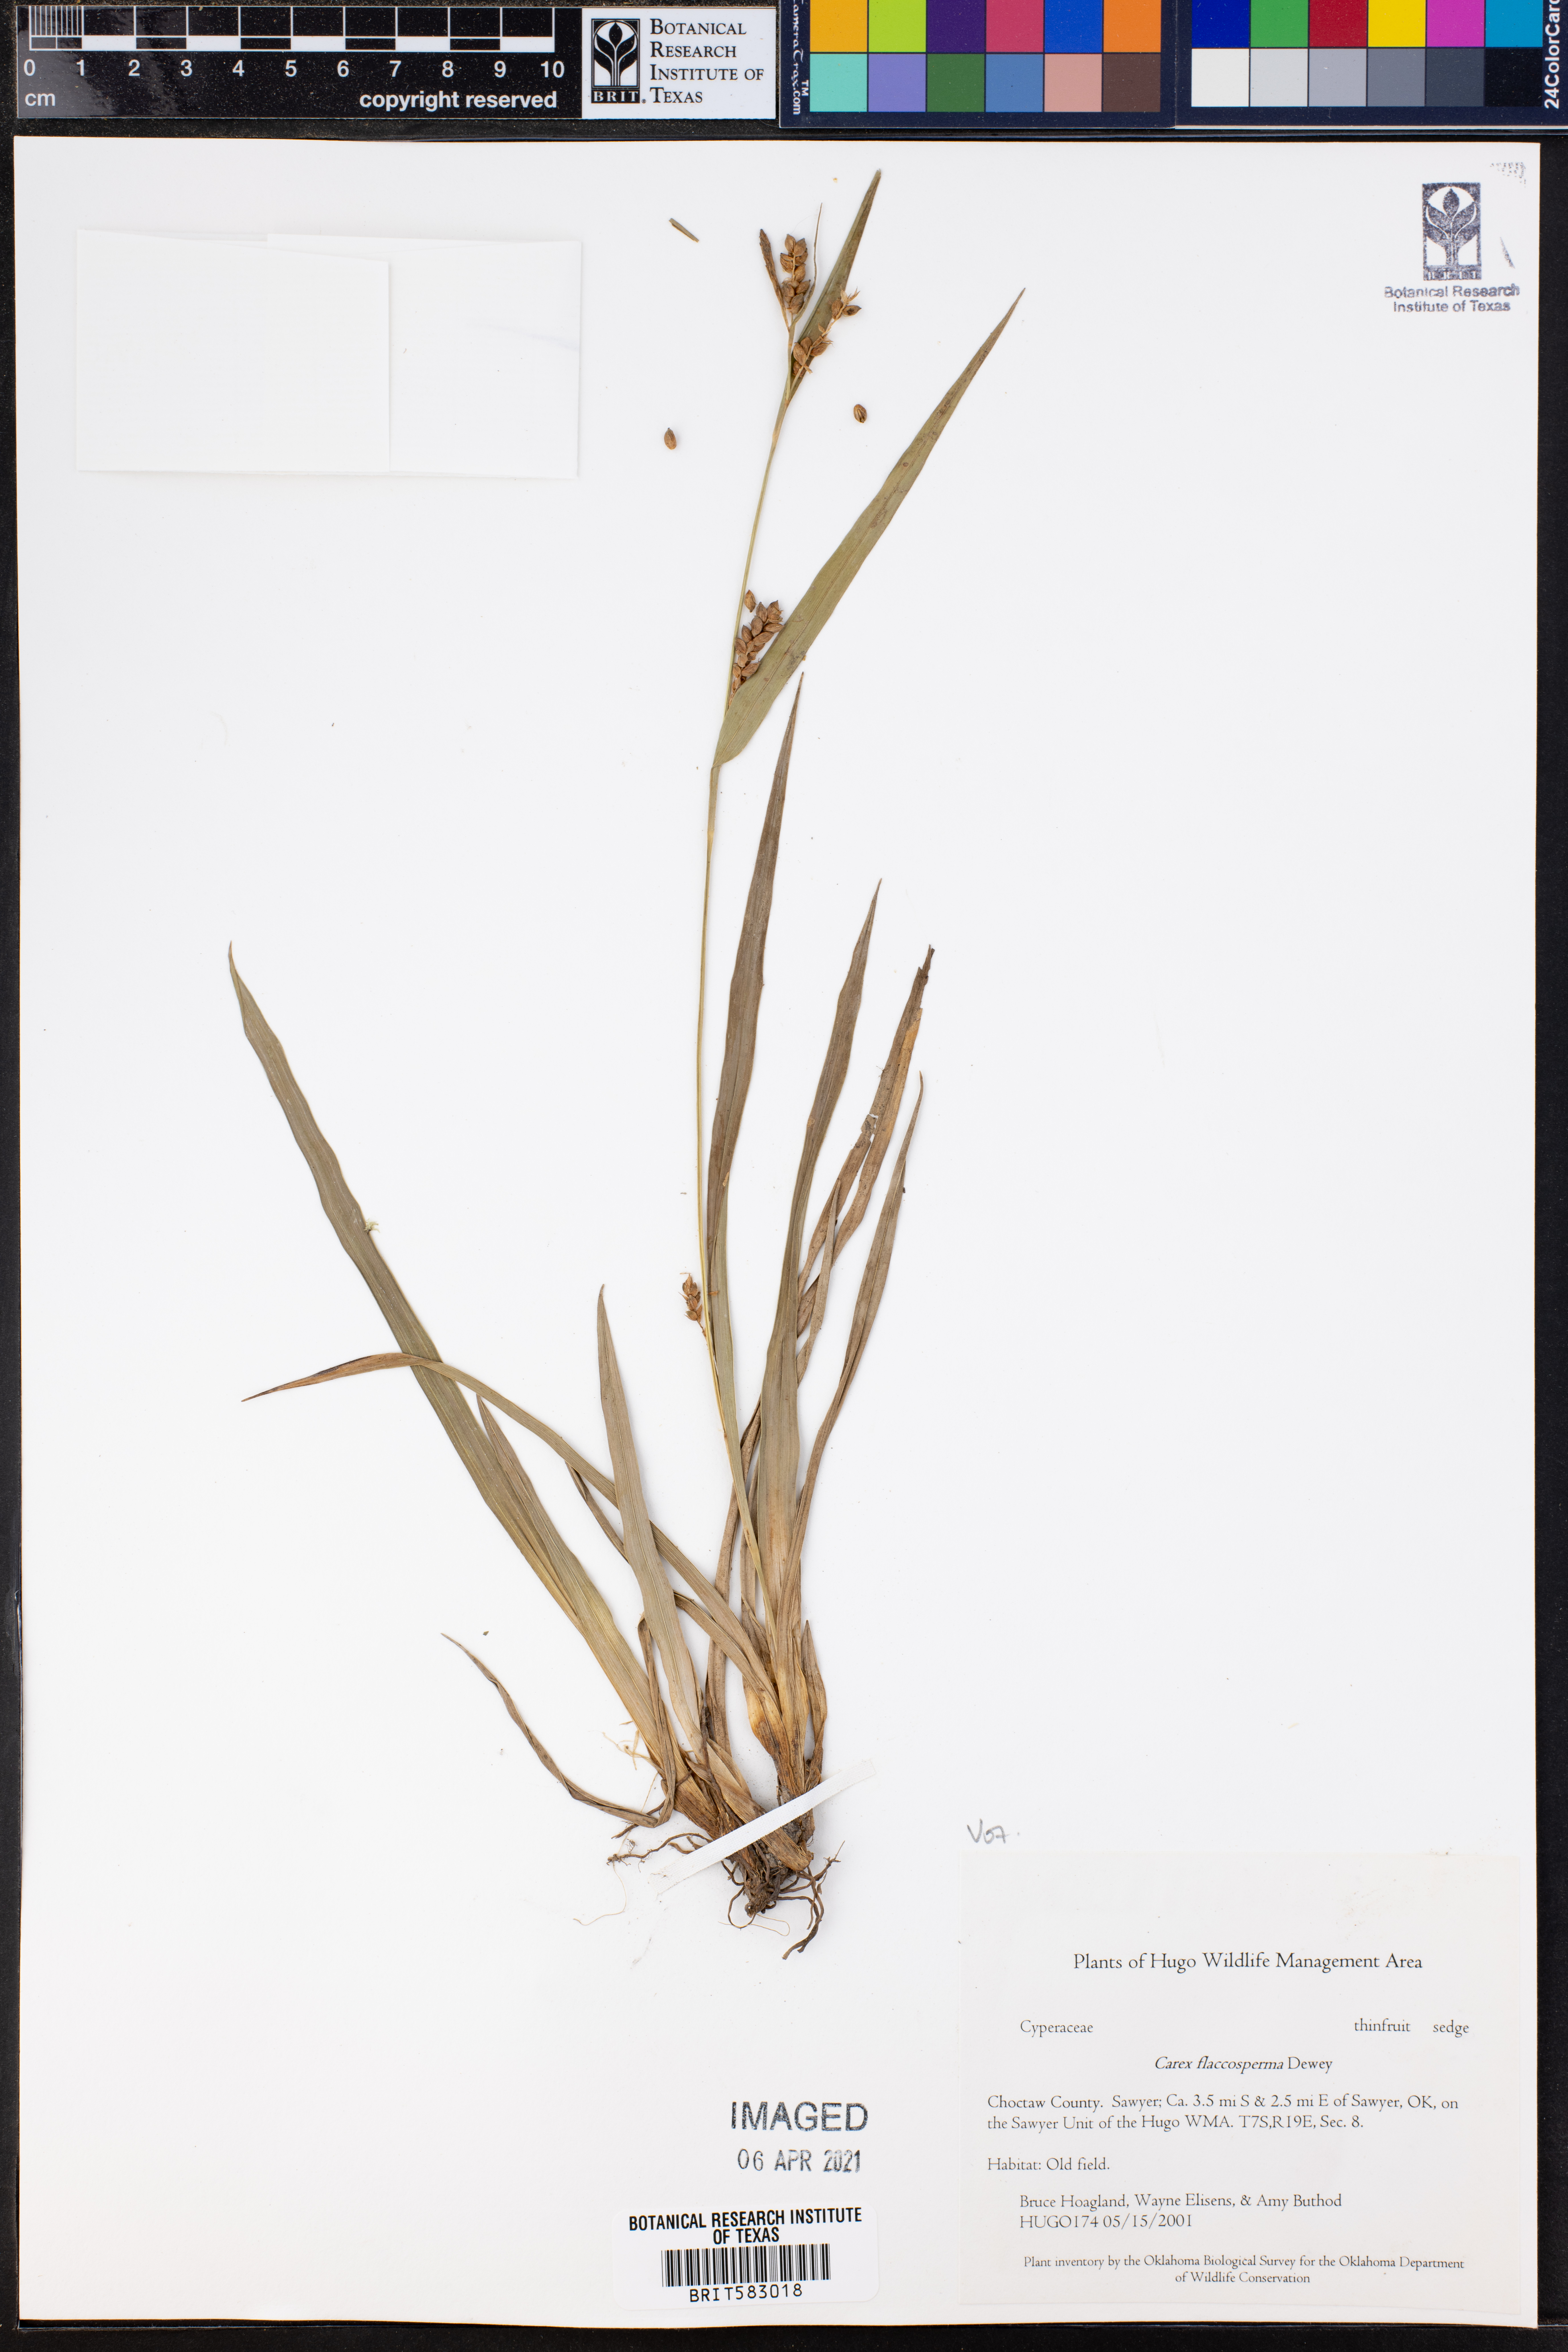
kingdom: Plantae
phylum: Tracheophyta
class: Liliopsida
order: Poales
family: Cyperaceae
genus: Carex
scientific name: Carex flaccosperma
